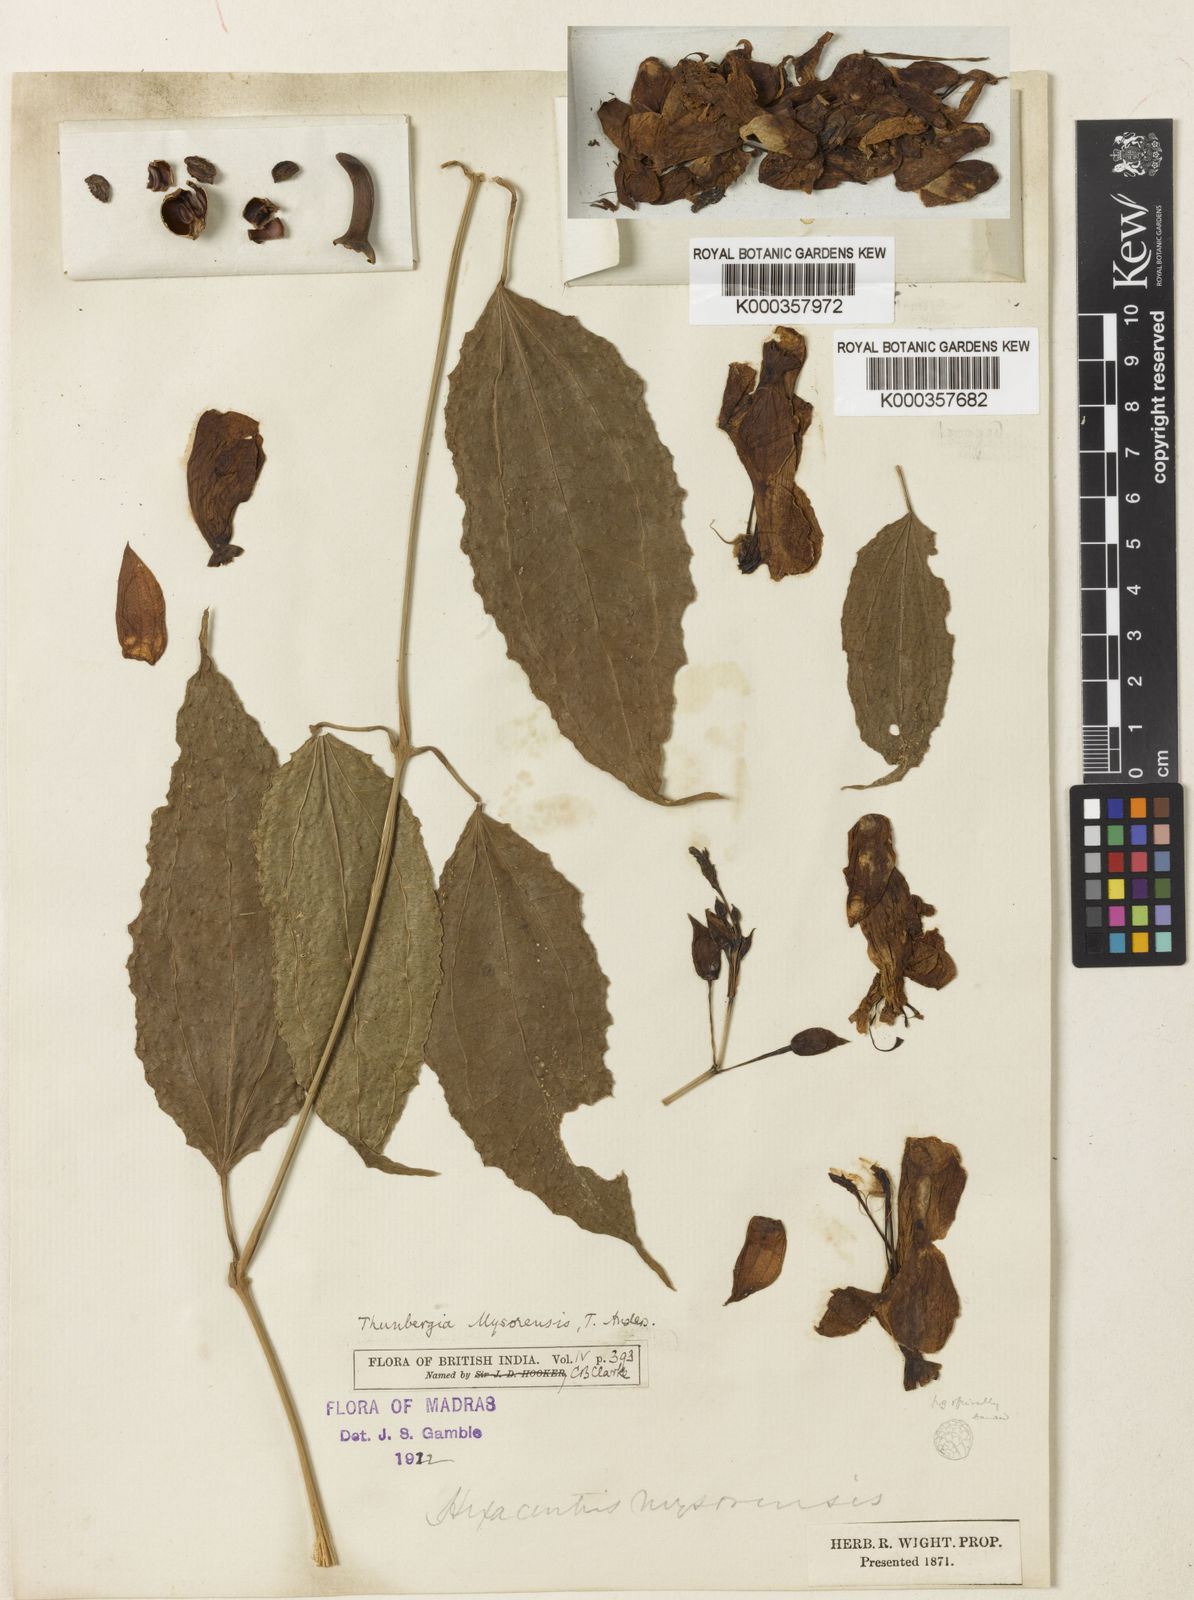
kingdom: Plantae
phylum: Tracheophyta
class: Magnoliopsida
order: Lamiales
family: Acanthaceae
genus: Thunbergia
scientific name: Thunbergia
